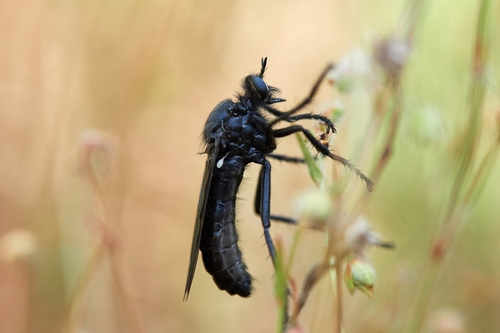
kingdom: Animalia
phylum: Arthropoda
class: Insecta
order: Diptera
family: Asilidae
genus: Dasypogon
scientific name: Dasypogon
